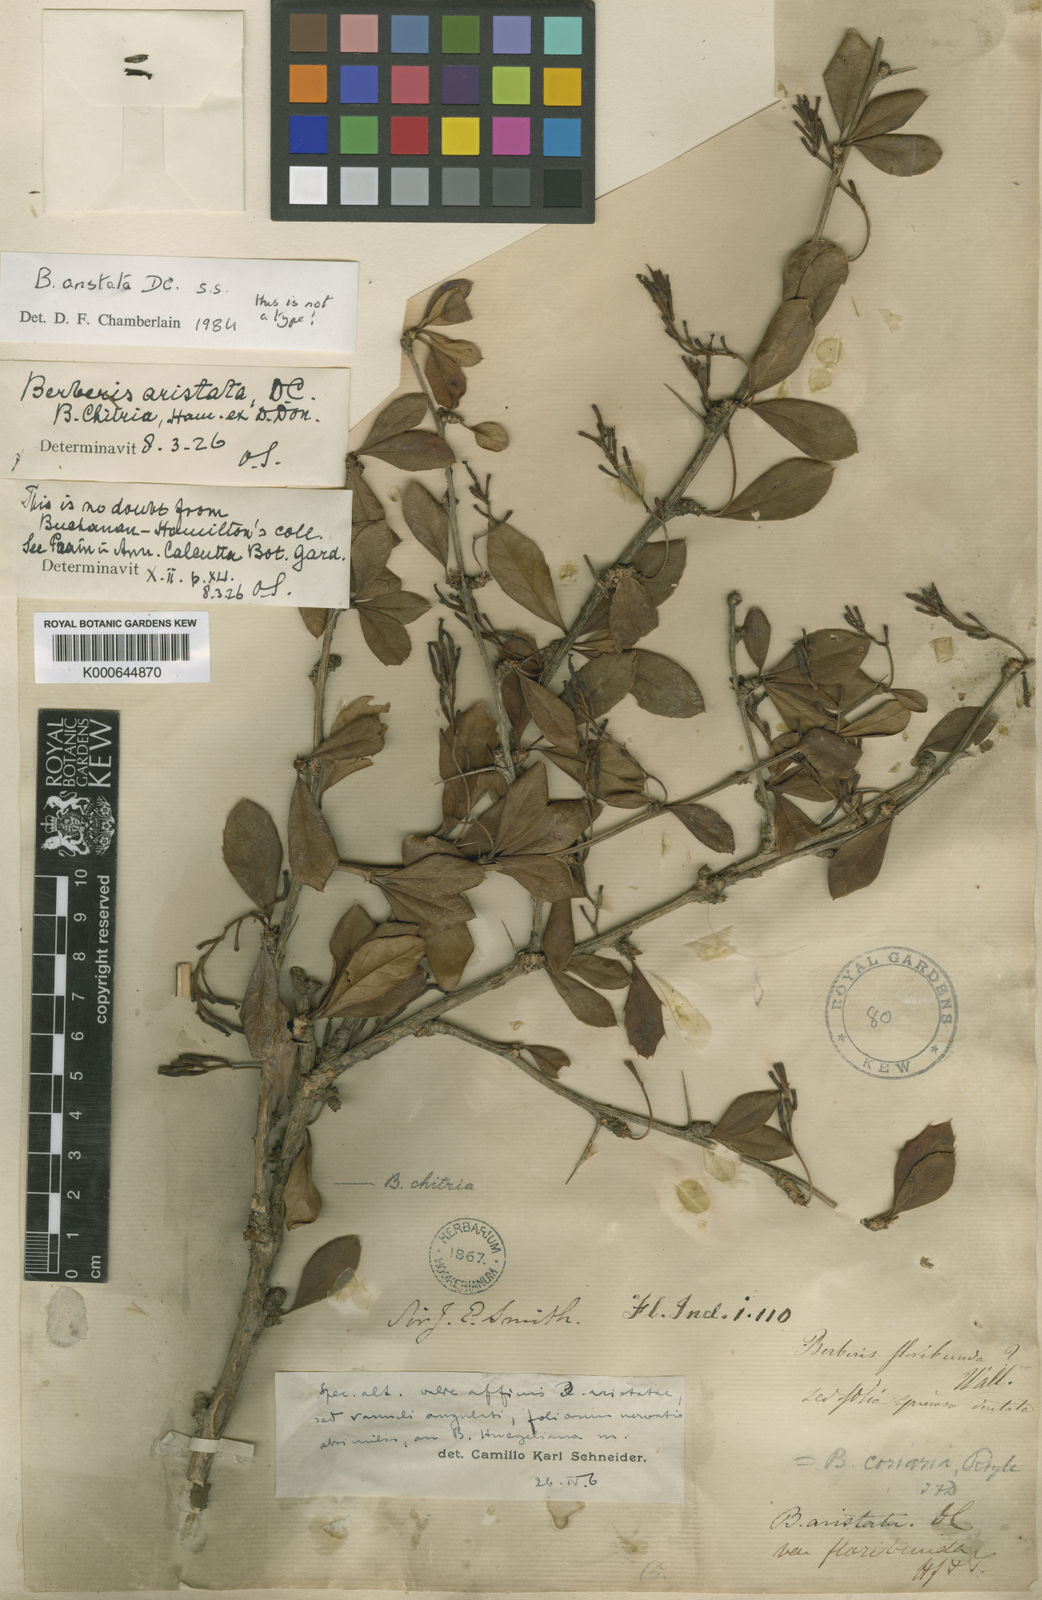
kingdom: Plantae
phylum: Tracheophyta
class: Magnoliopsida
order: Ranunculales
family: Berberidaceae
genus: Berberis
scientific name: Berberis
